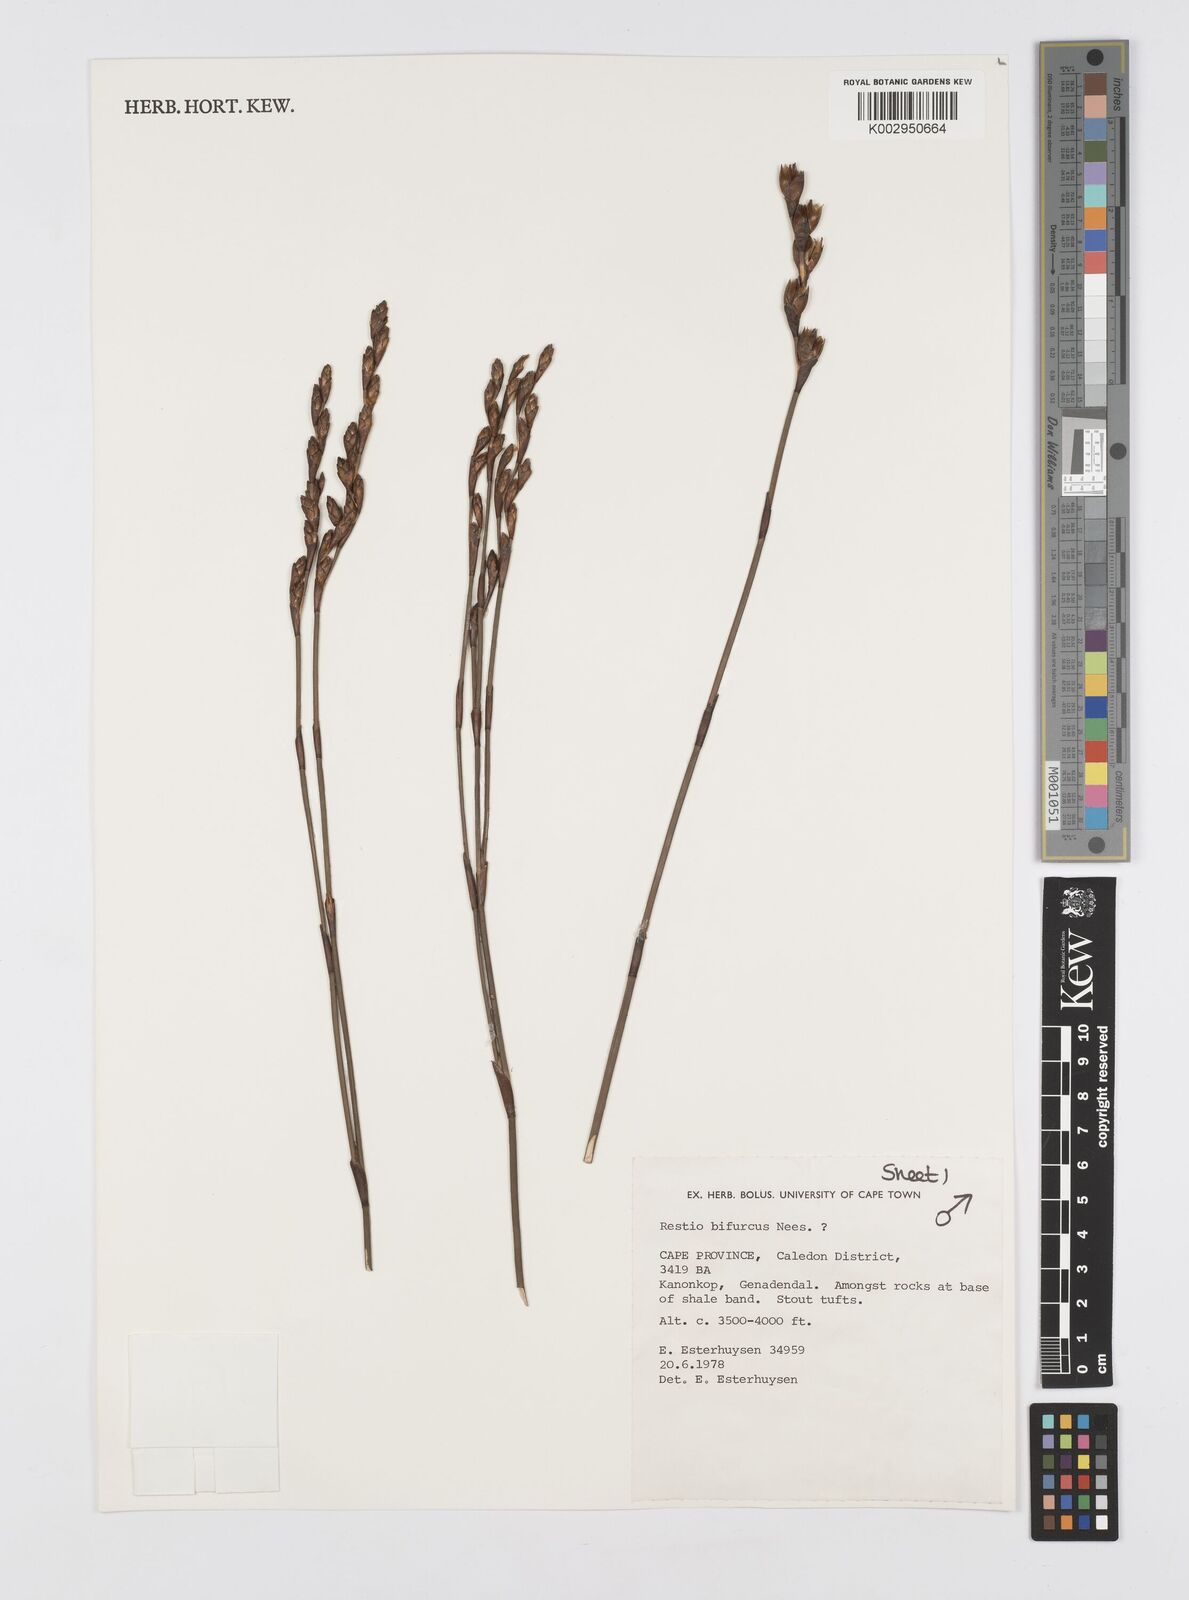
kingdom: Plantae
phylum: Tracheophyta
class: Liliopsida
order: Poales
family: Restionaceae
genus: Restio
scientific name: Restio bifurcus
